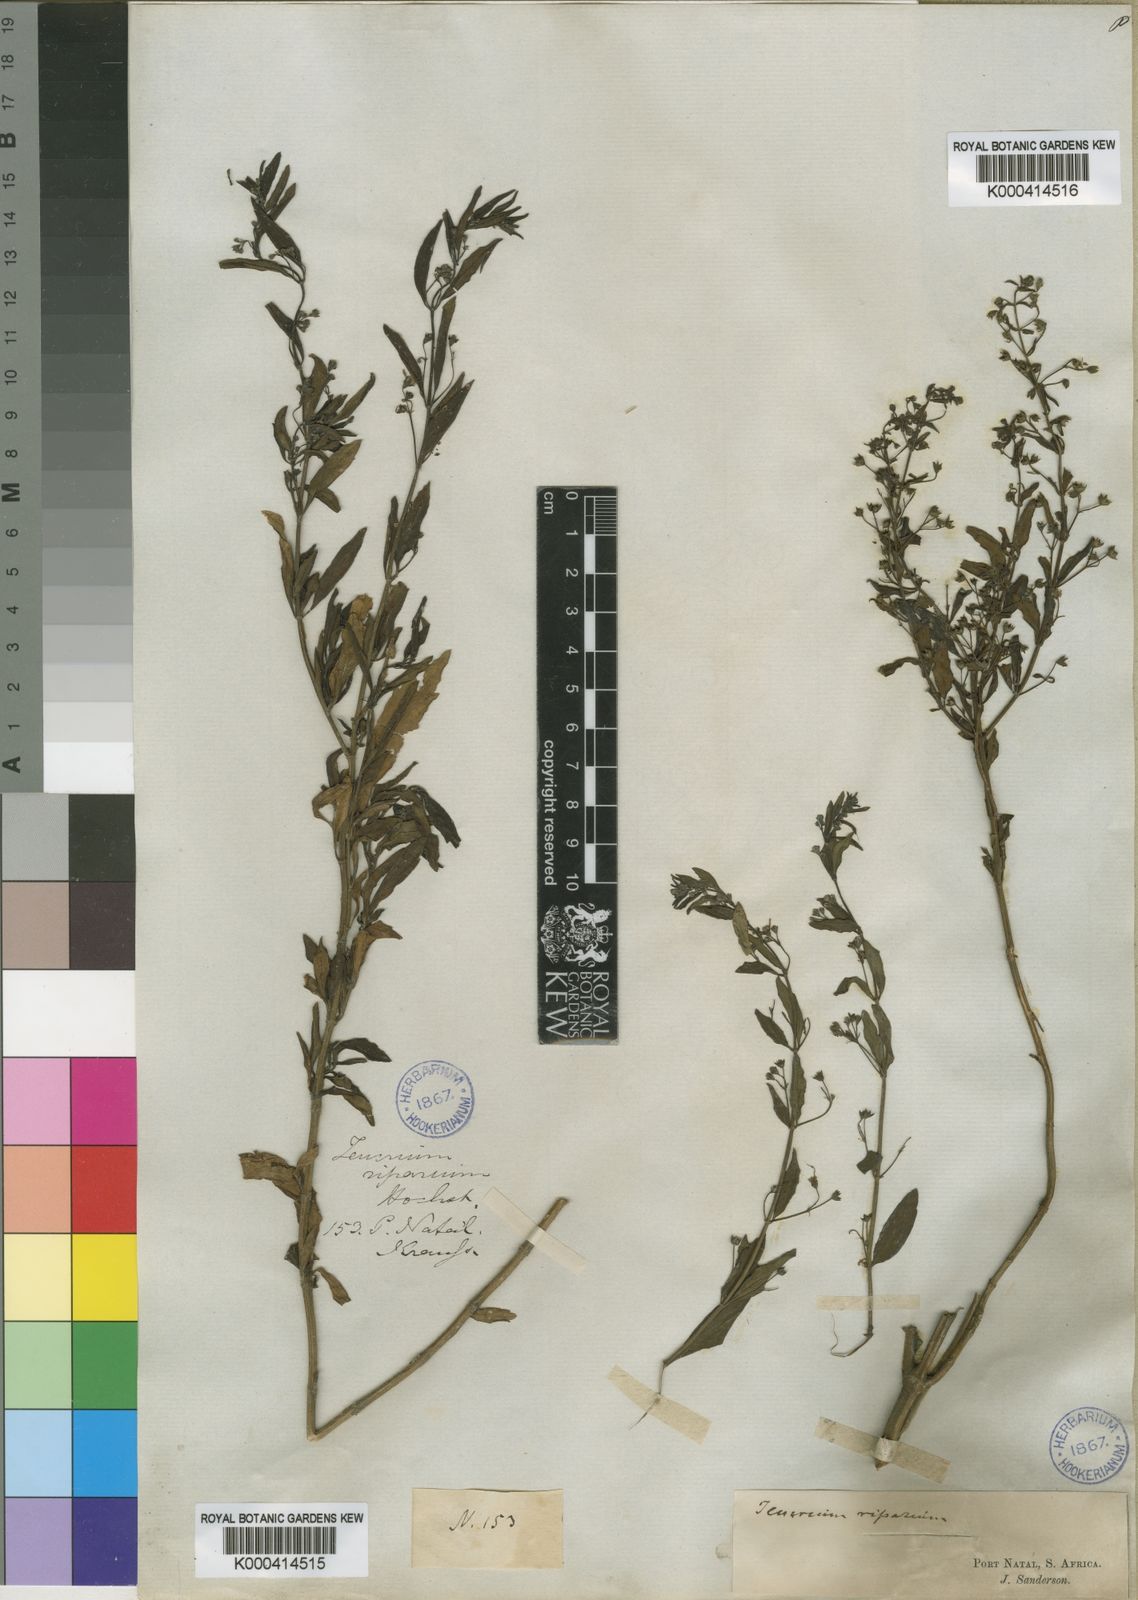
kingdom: Plantae
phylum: Tracheophyta
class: Magnoliopsida
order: Lamiales
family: Lamiaceae
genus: Teucrium
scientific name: Teucrium kraussii
